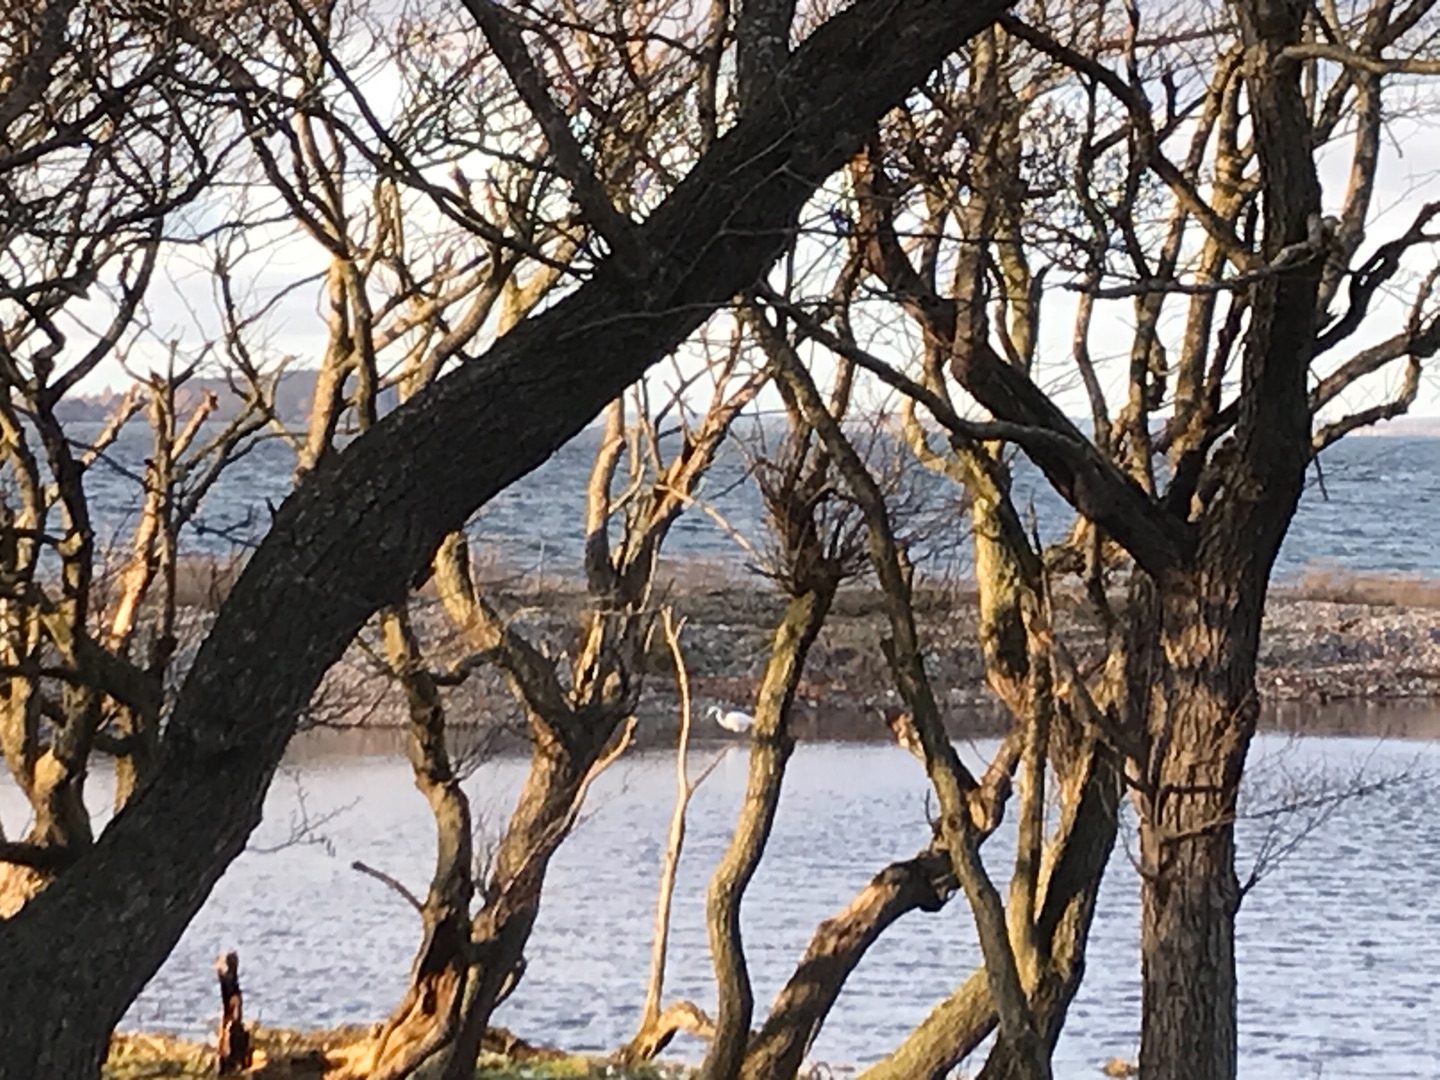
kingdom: Animalia
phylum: Chordata
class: Aves
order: Pelecaniformes
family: Ardeidae
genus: Ardea
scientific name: Ardea alba
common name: Sølvhejre
